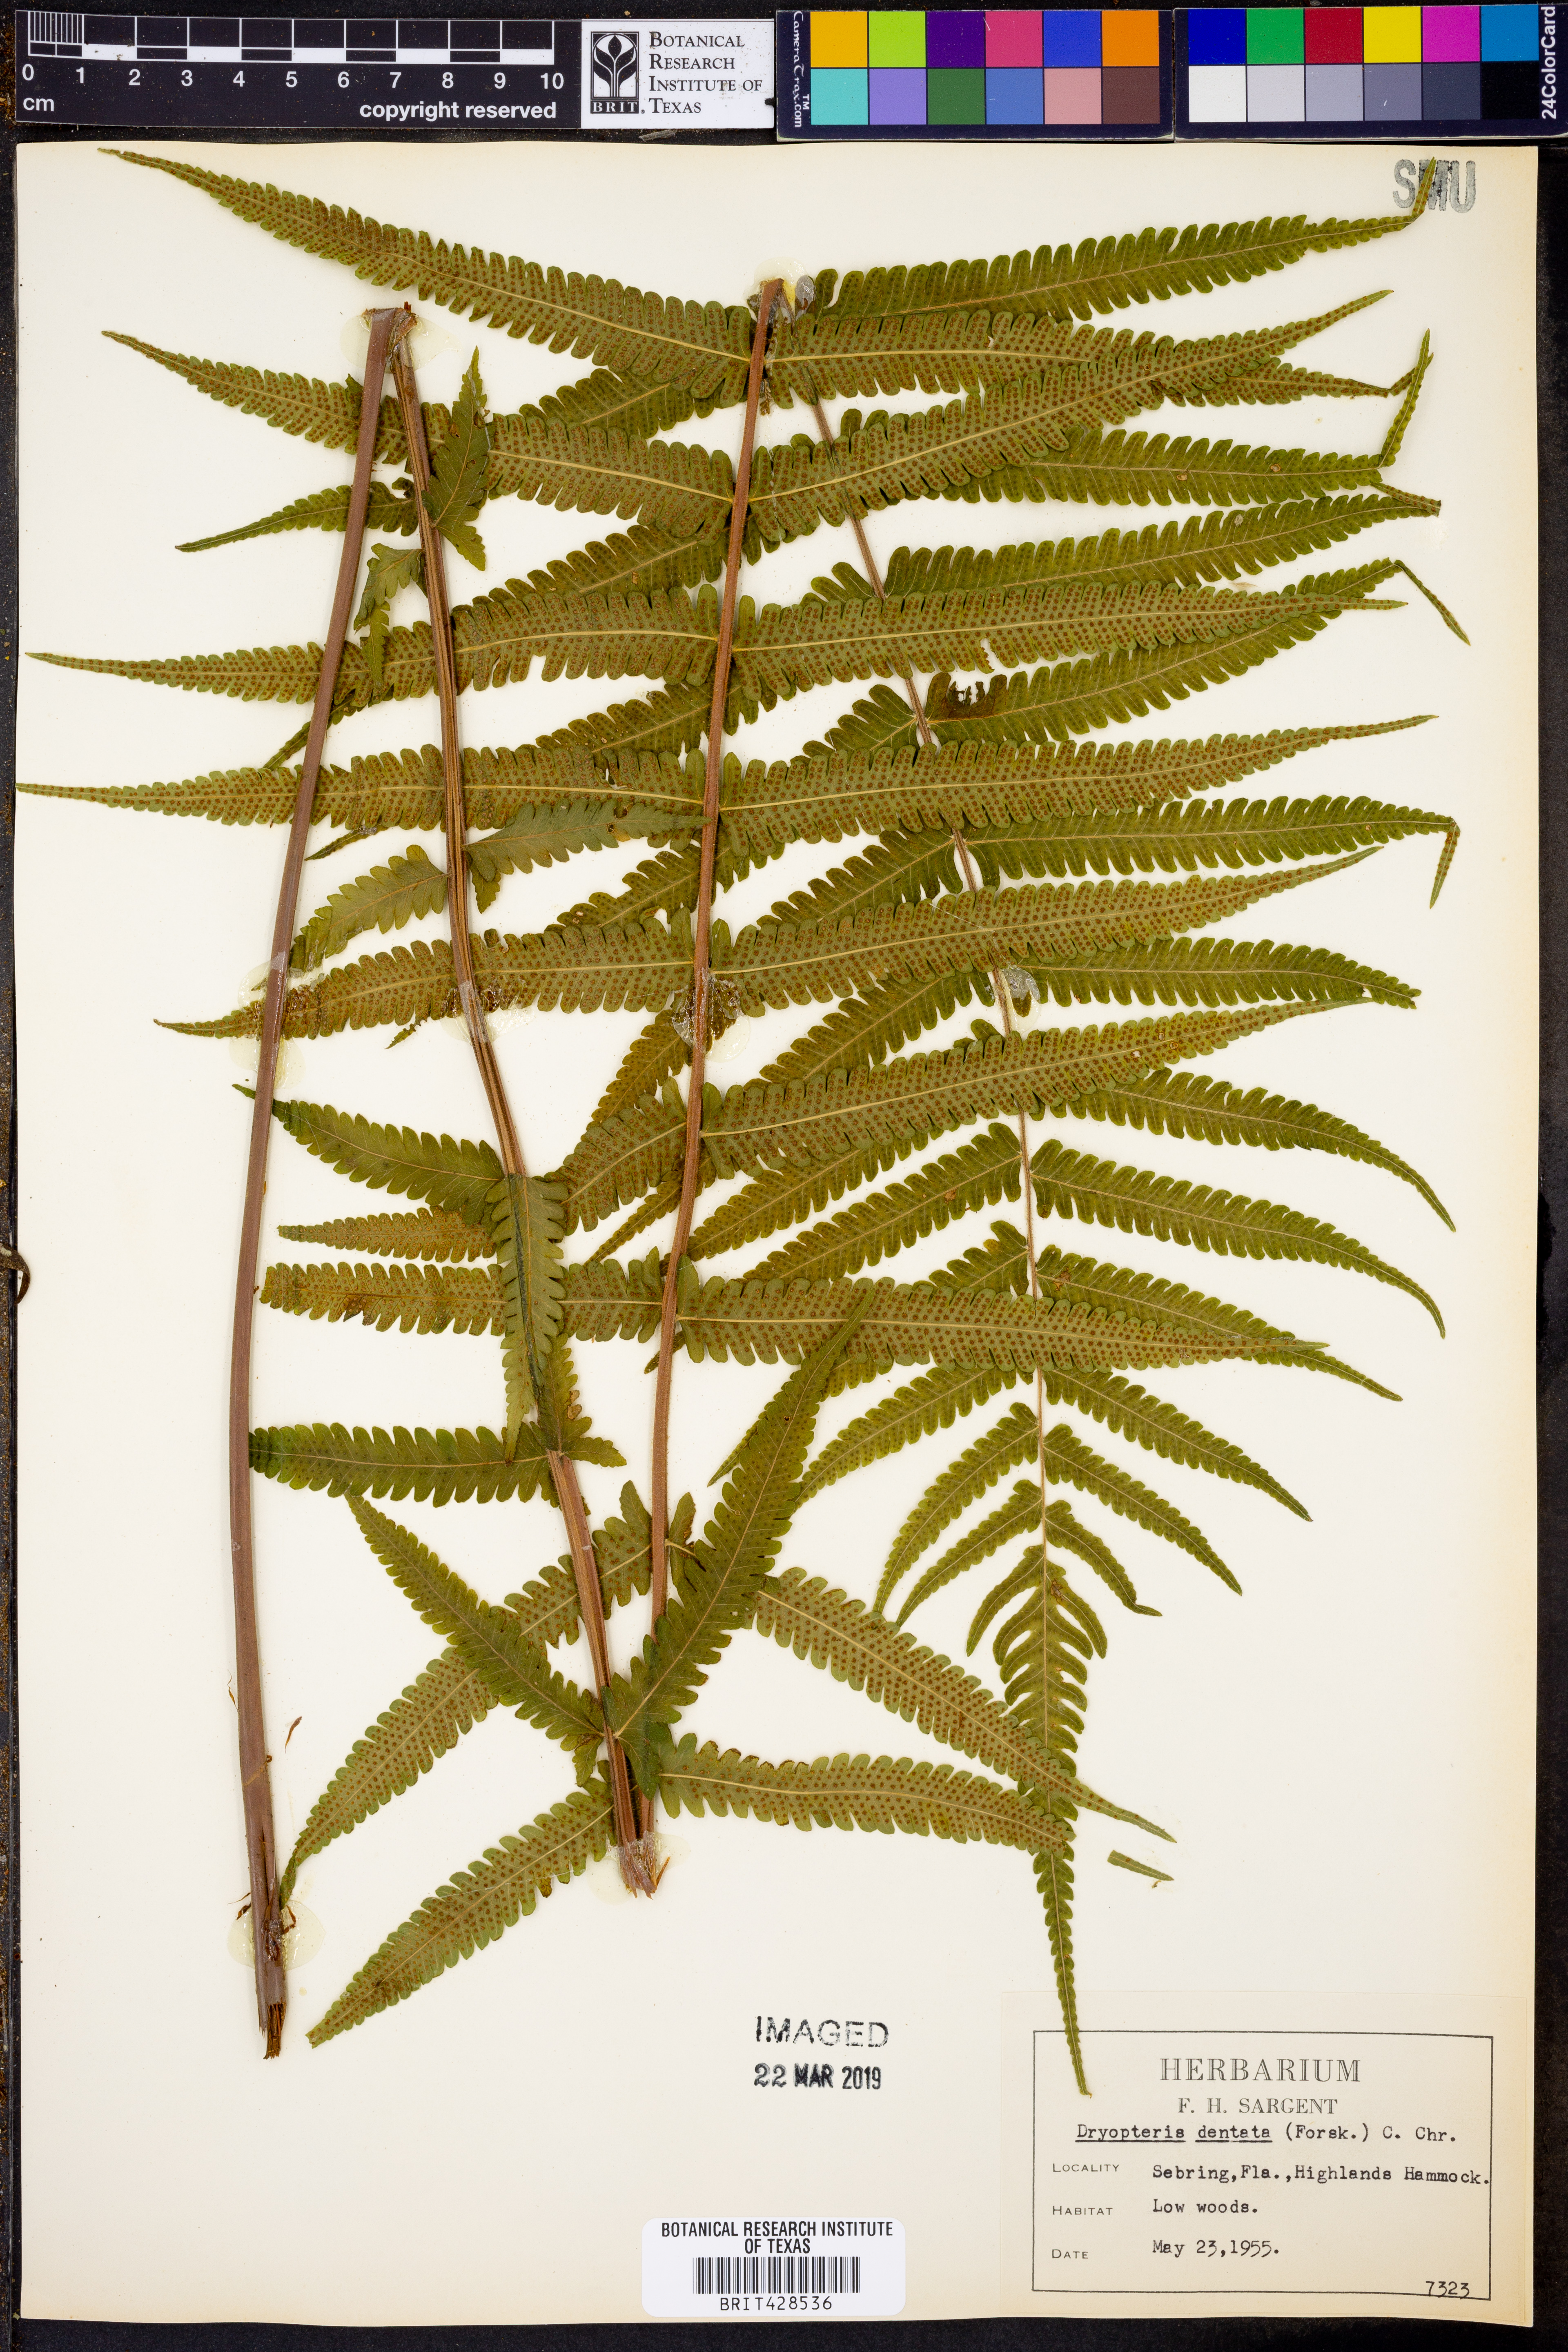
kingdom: Plantae
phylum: Tracheophyta
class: Polypodiopsida
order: Polypodiales
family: Thelypteridaceae
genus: Christella
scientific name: Christella dentata
